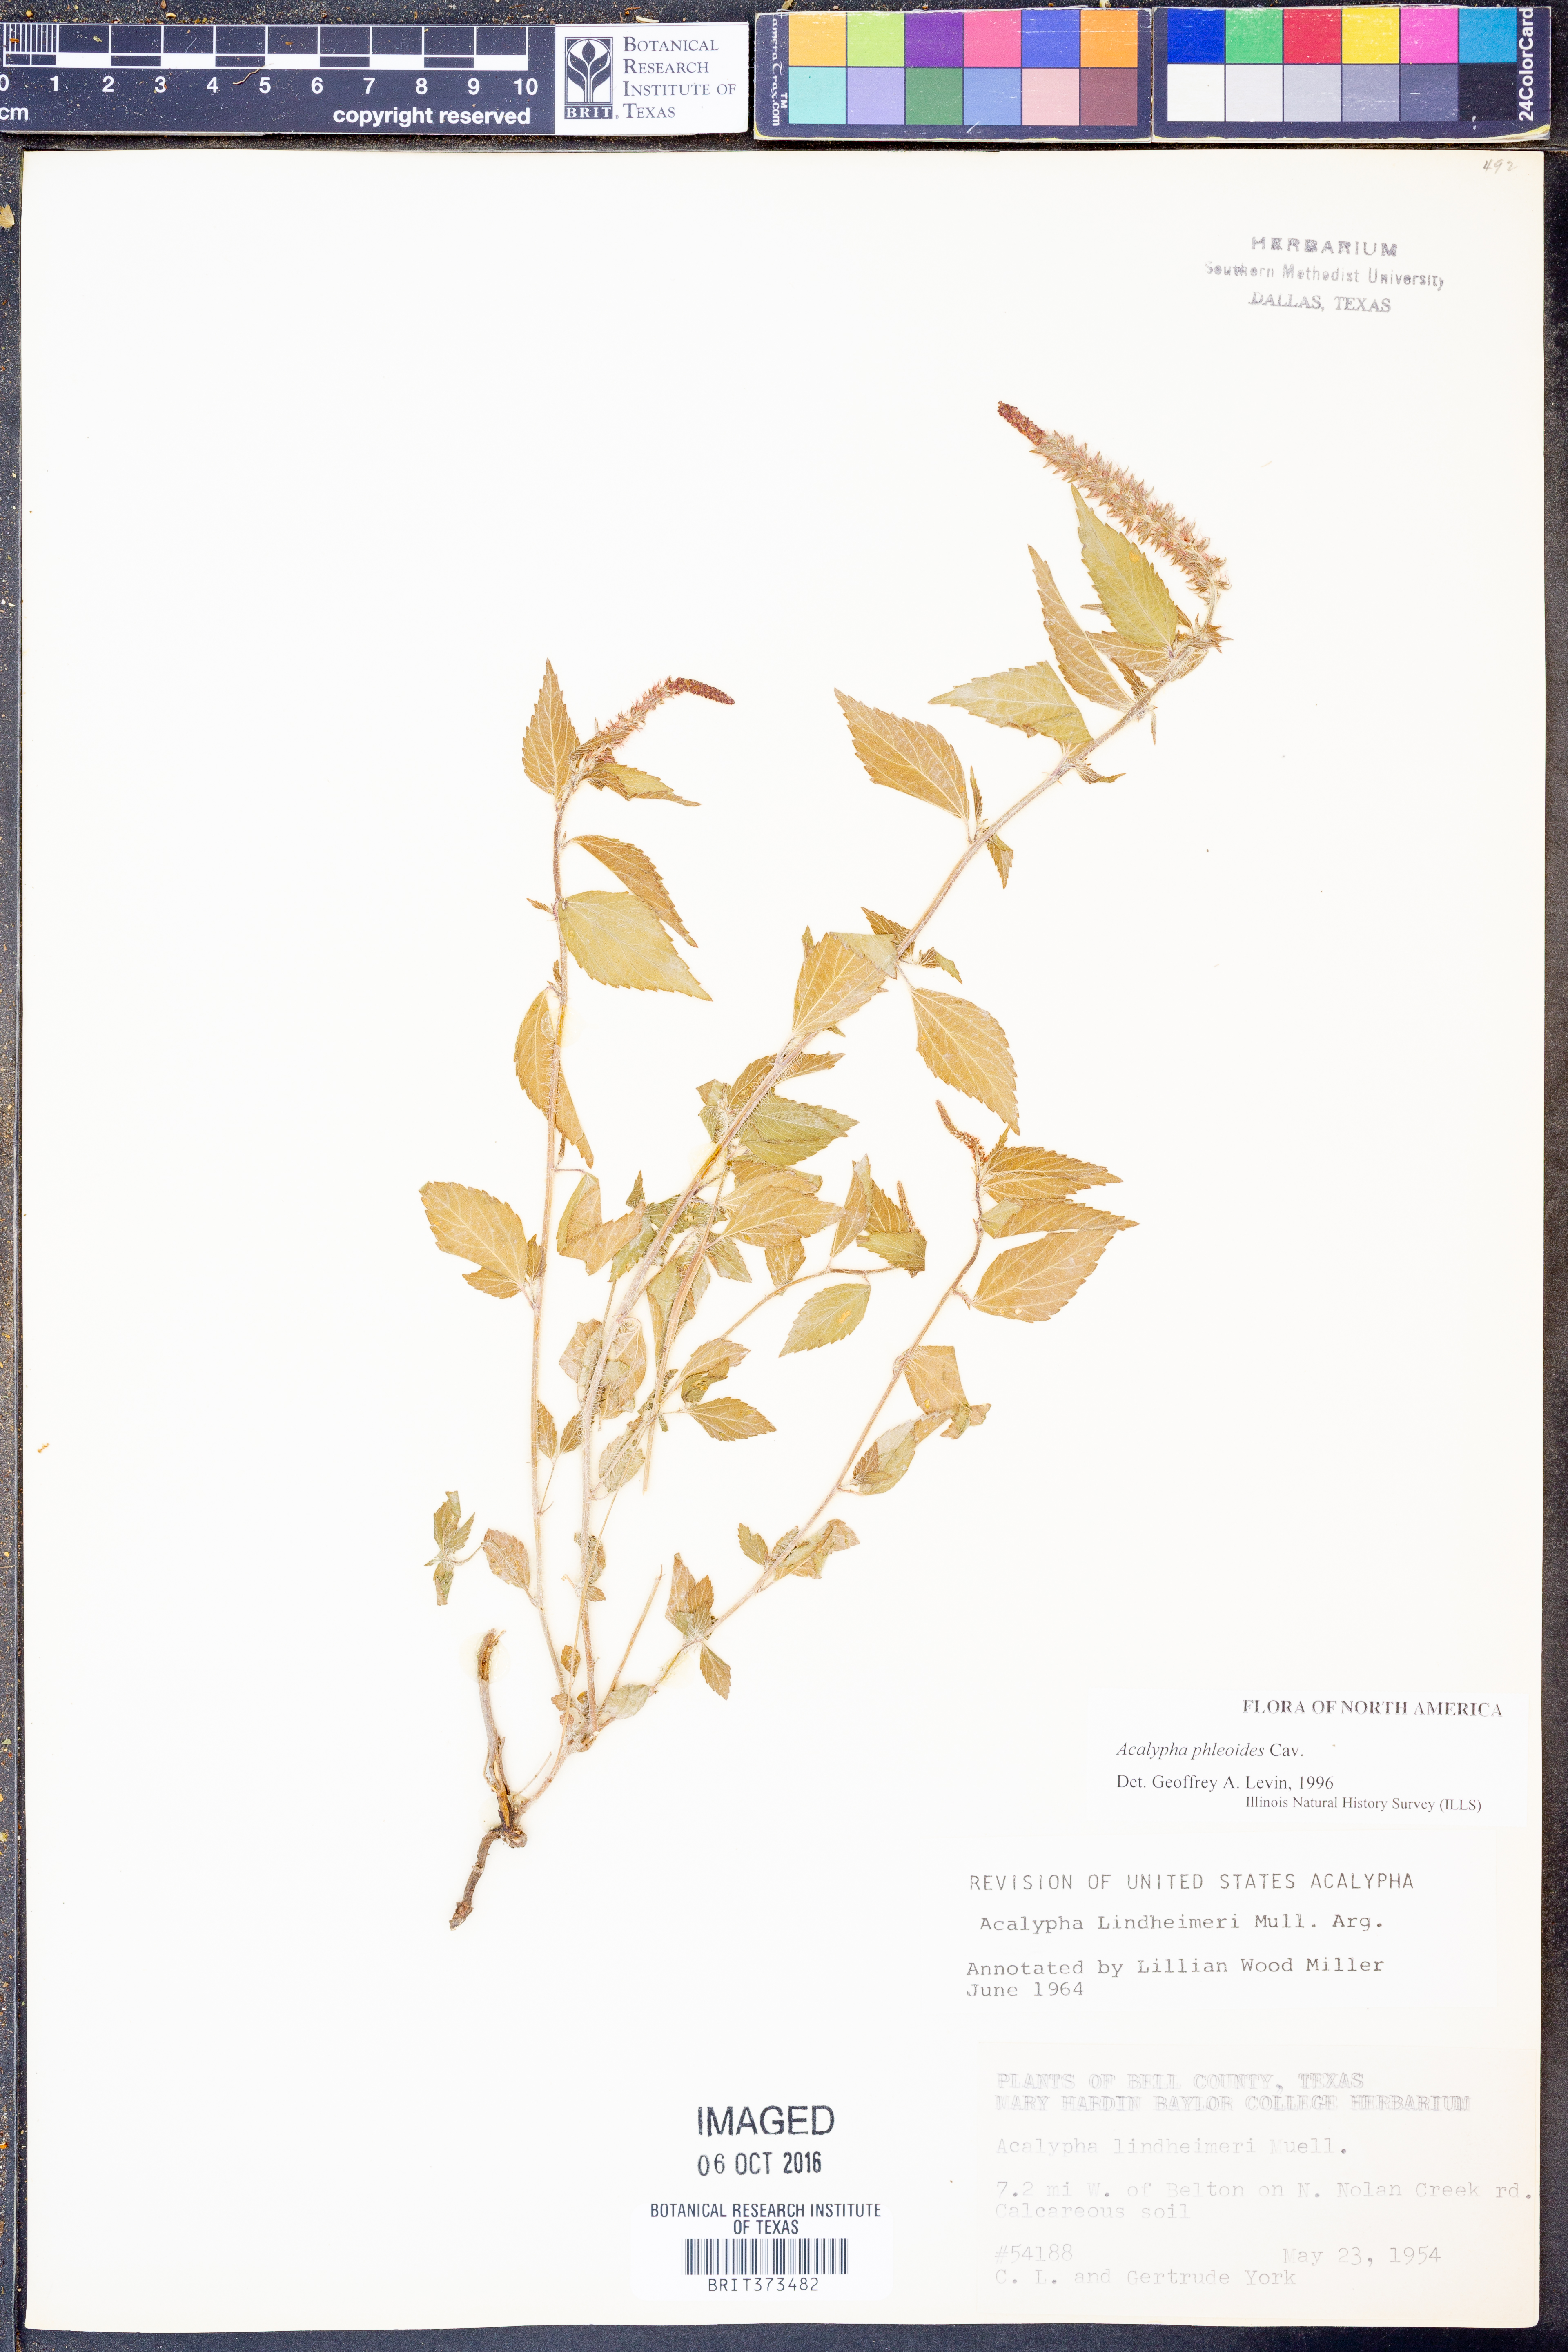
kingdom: Plantae
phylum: Tracheophyta
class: Magnoliopsida
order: Malpighiales
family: Euphorbiaceae
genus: Acalypha
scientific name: Acalypha phleoides
